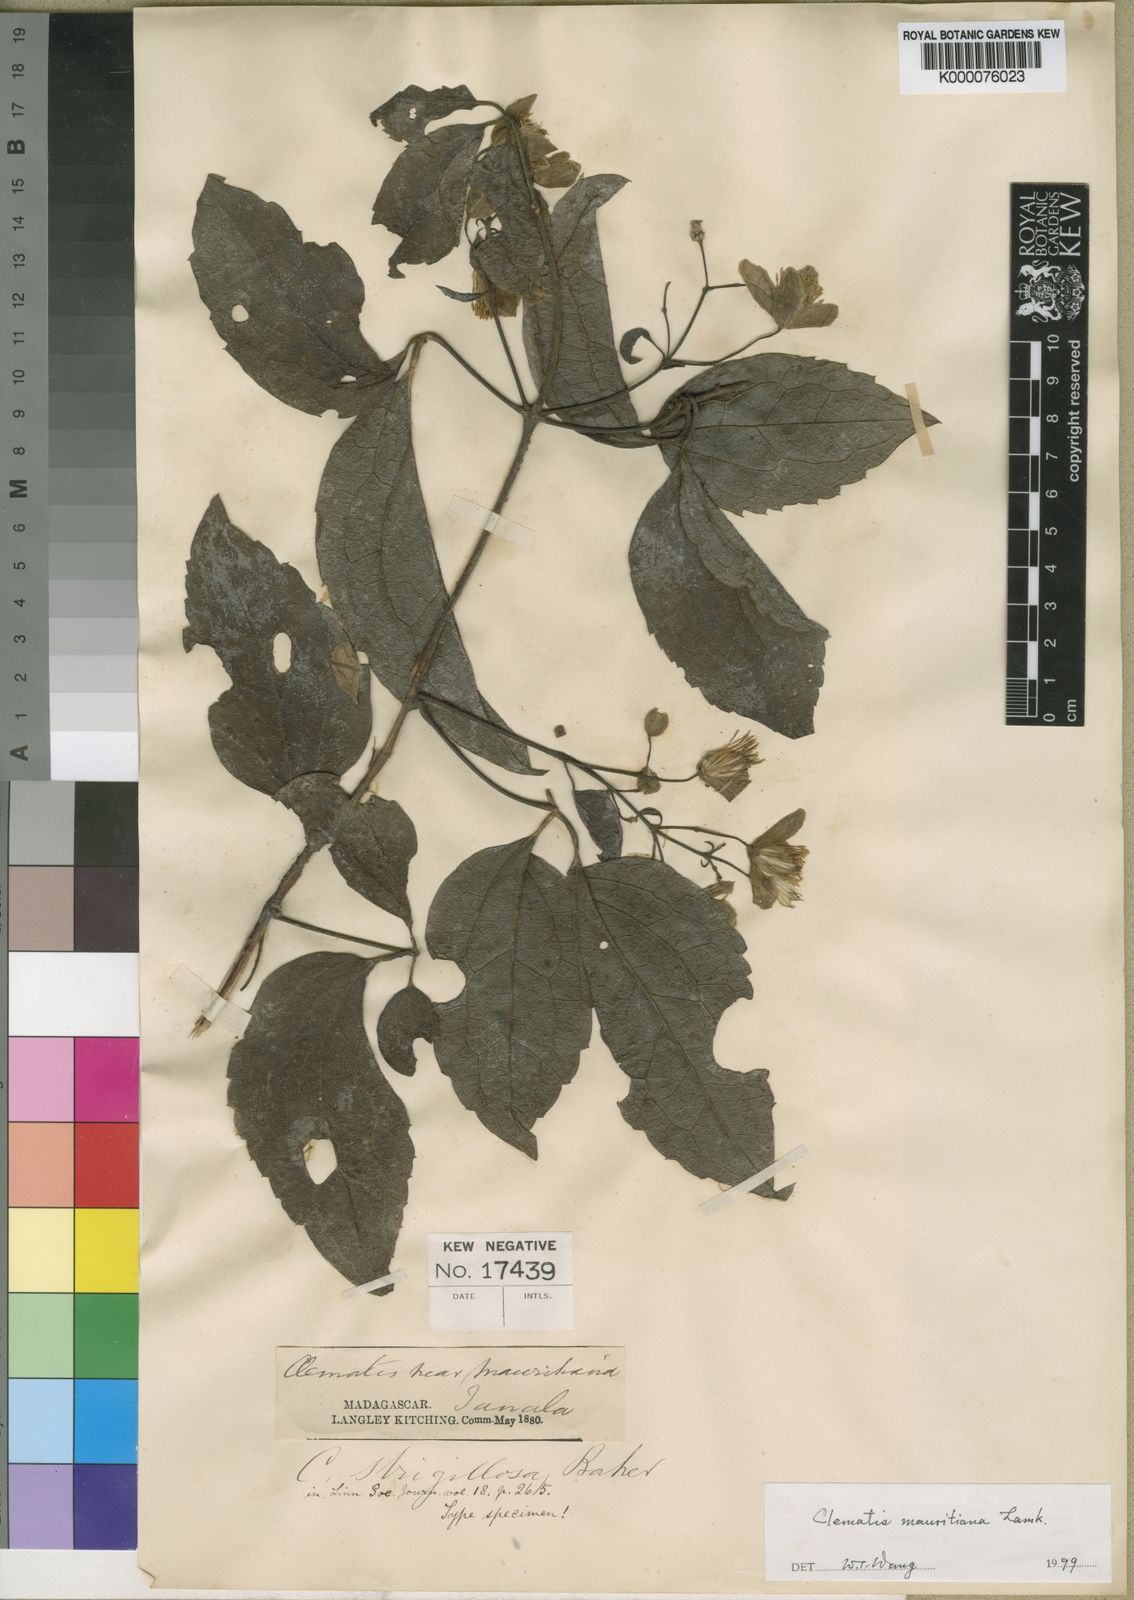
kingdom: Plantae
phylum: Tracheophyta
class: Magnoliopsida
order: Ranunculales
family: Ranunculaceae
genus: Clematis
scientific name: Clematis mauritiana
